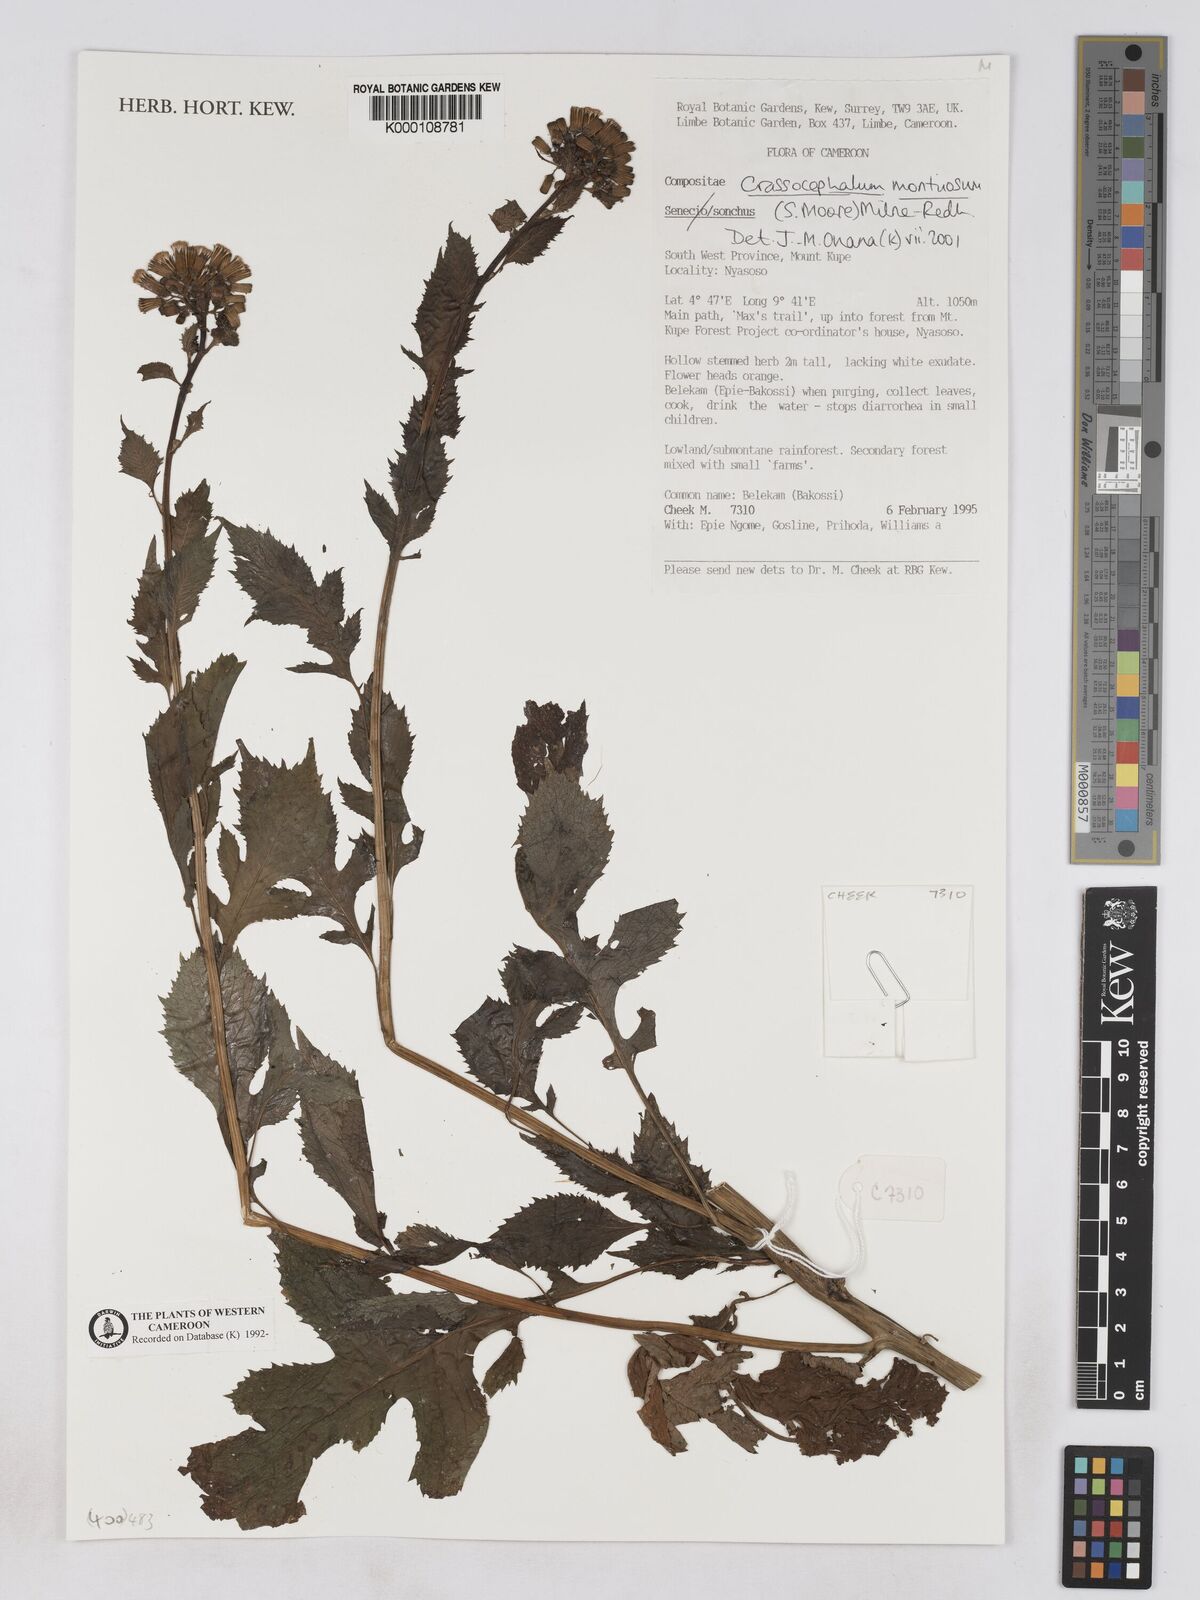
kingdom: Plantae
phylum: Tracheophyta
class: Magnoliopsida
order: Asterales
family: Asteraceae
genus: Crassocephalum
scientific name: Crassocephalum montuosum
